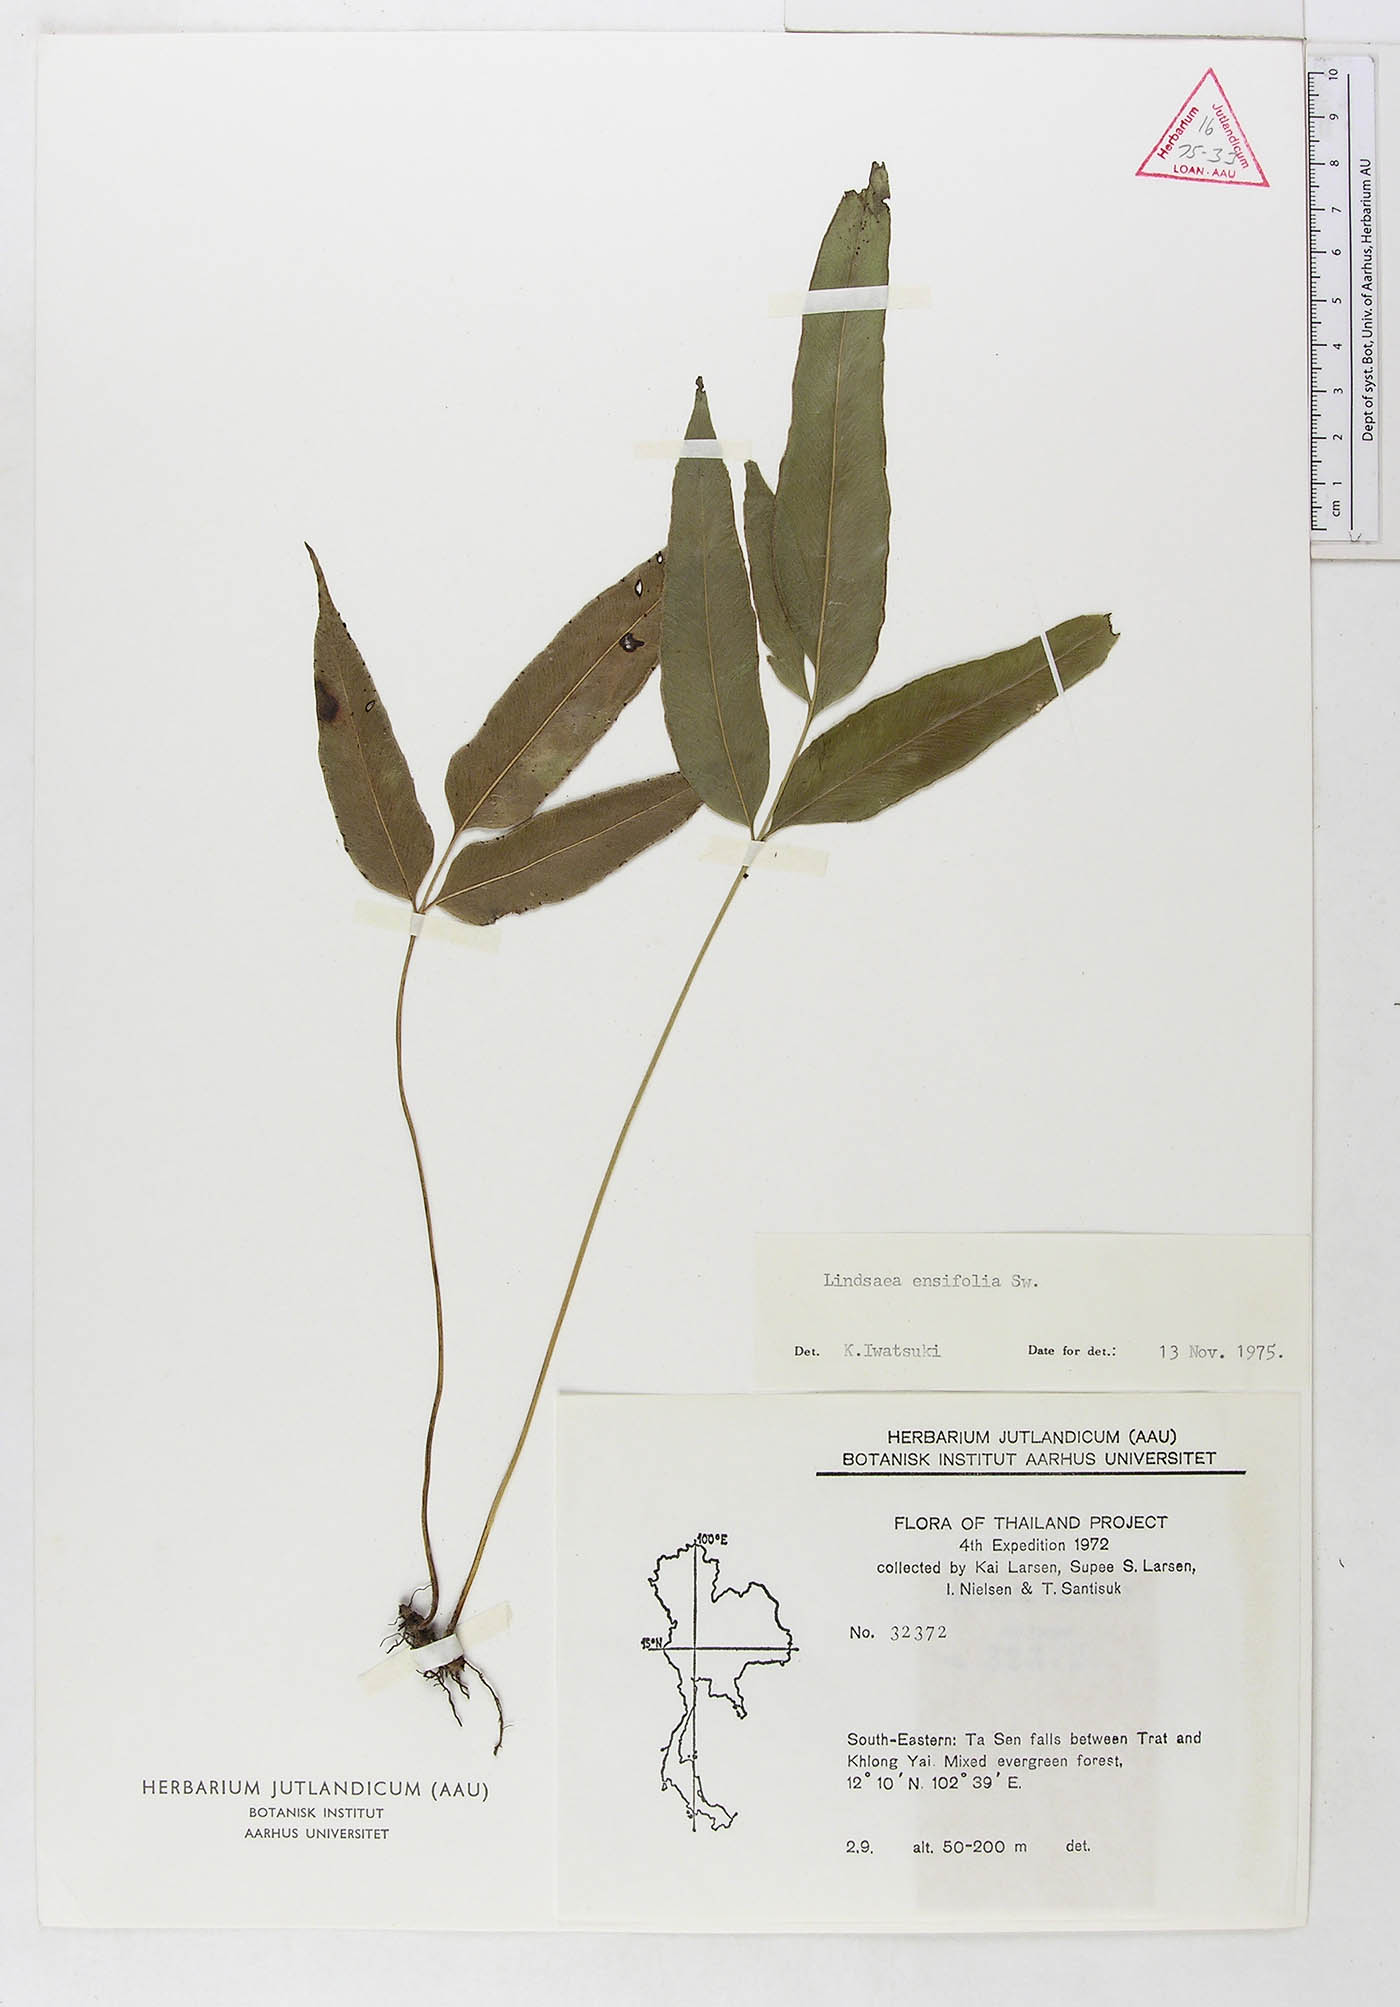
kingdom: Plantae
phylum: Tracheophyta
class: Polypodiopsida
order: Polypodiales
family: Lindsaeaceae
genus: Lindsaea
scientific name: Lindsaea ensifolia
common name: Graceful necklace fern
